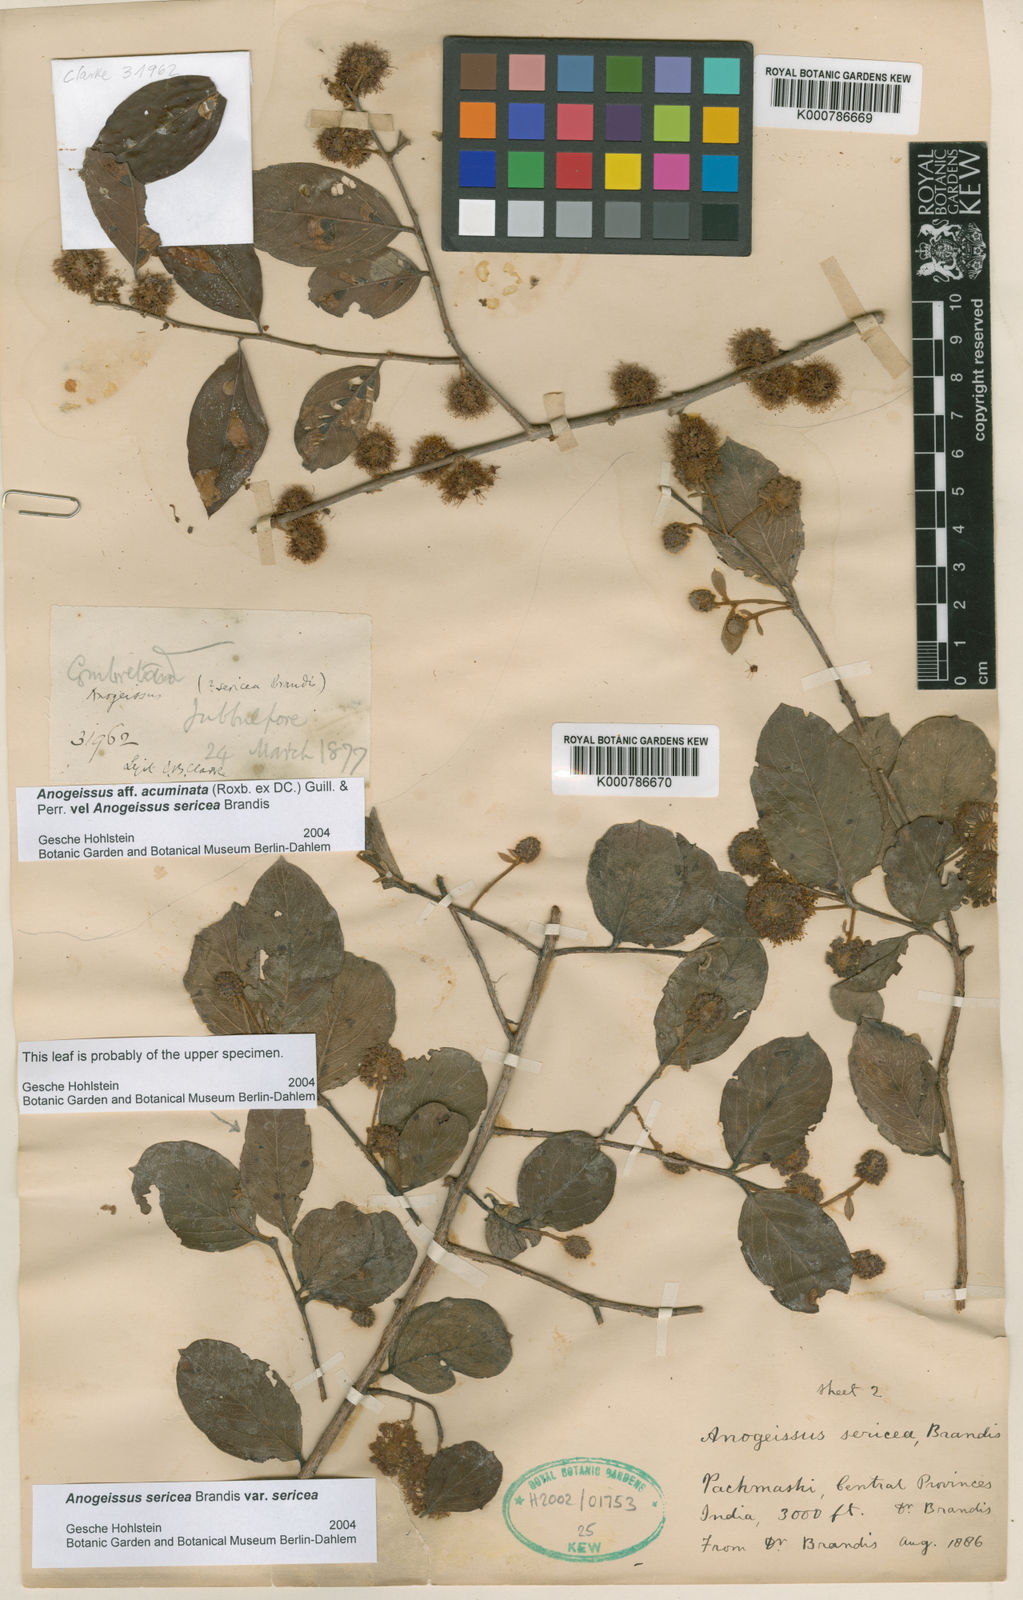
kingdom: Plantae
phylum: Tracheophyta
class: Magnoliopsida
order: Myrtales
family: Combretaceae
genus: Terminalia
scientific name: Terminalia coronata
